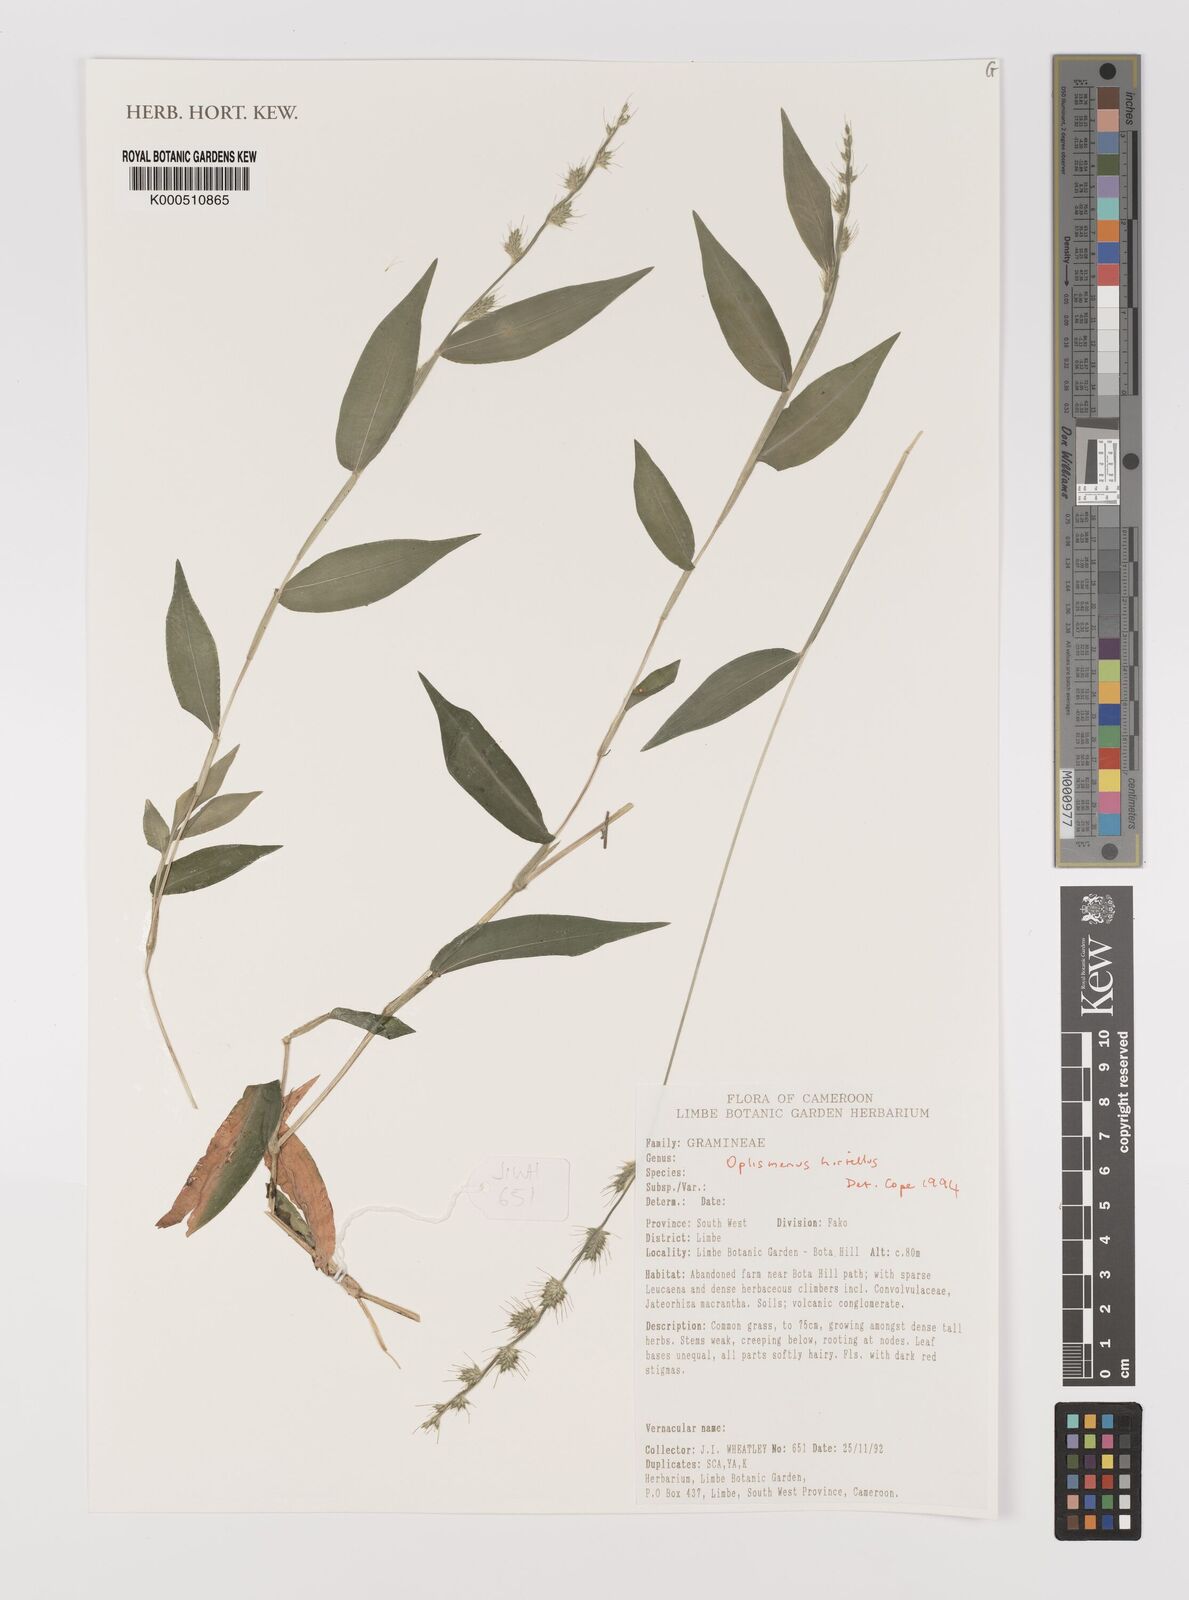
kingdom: Plantae
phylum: Tracheophyta
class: Liliopsida
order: Poales
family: Poaceae
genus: Oplismenus
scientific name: Oplismenus hirtellus
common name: Basketgrass
